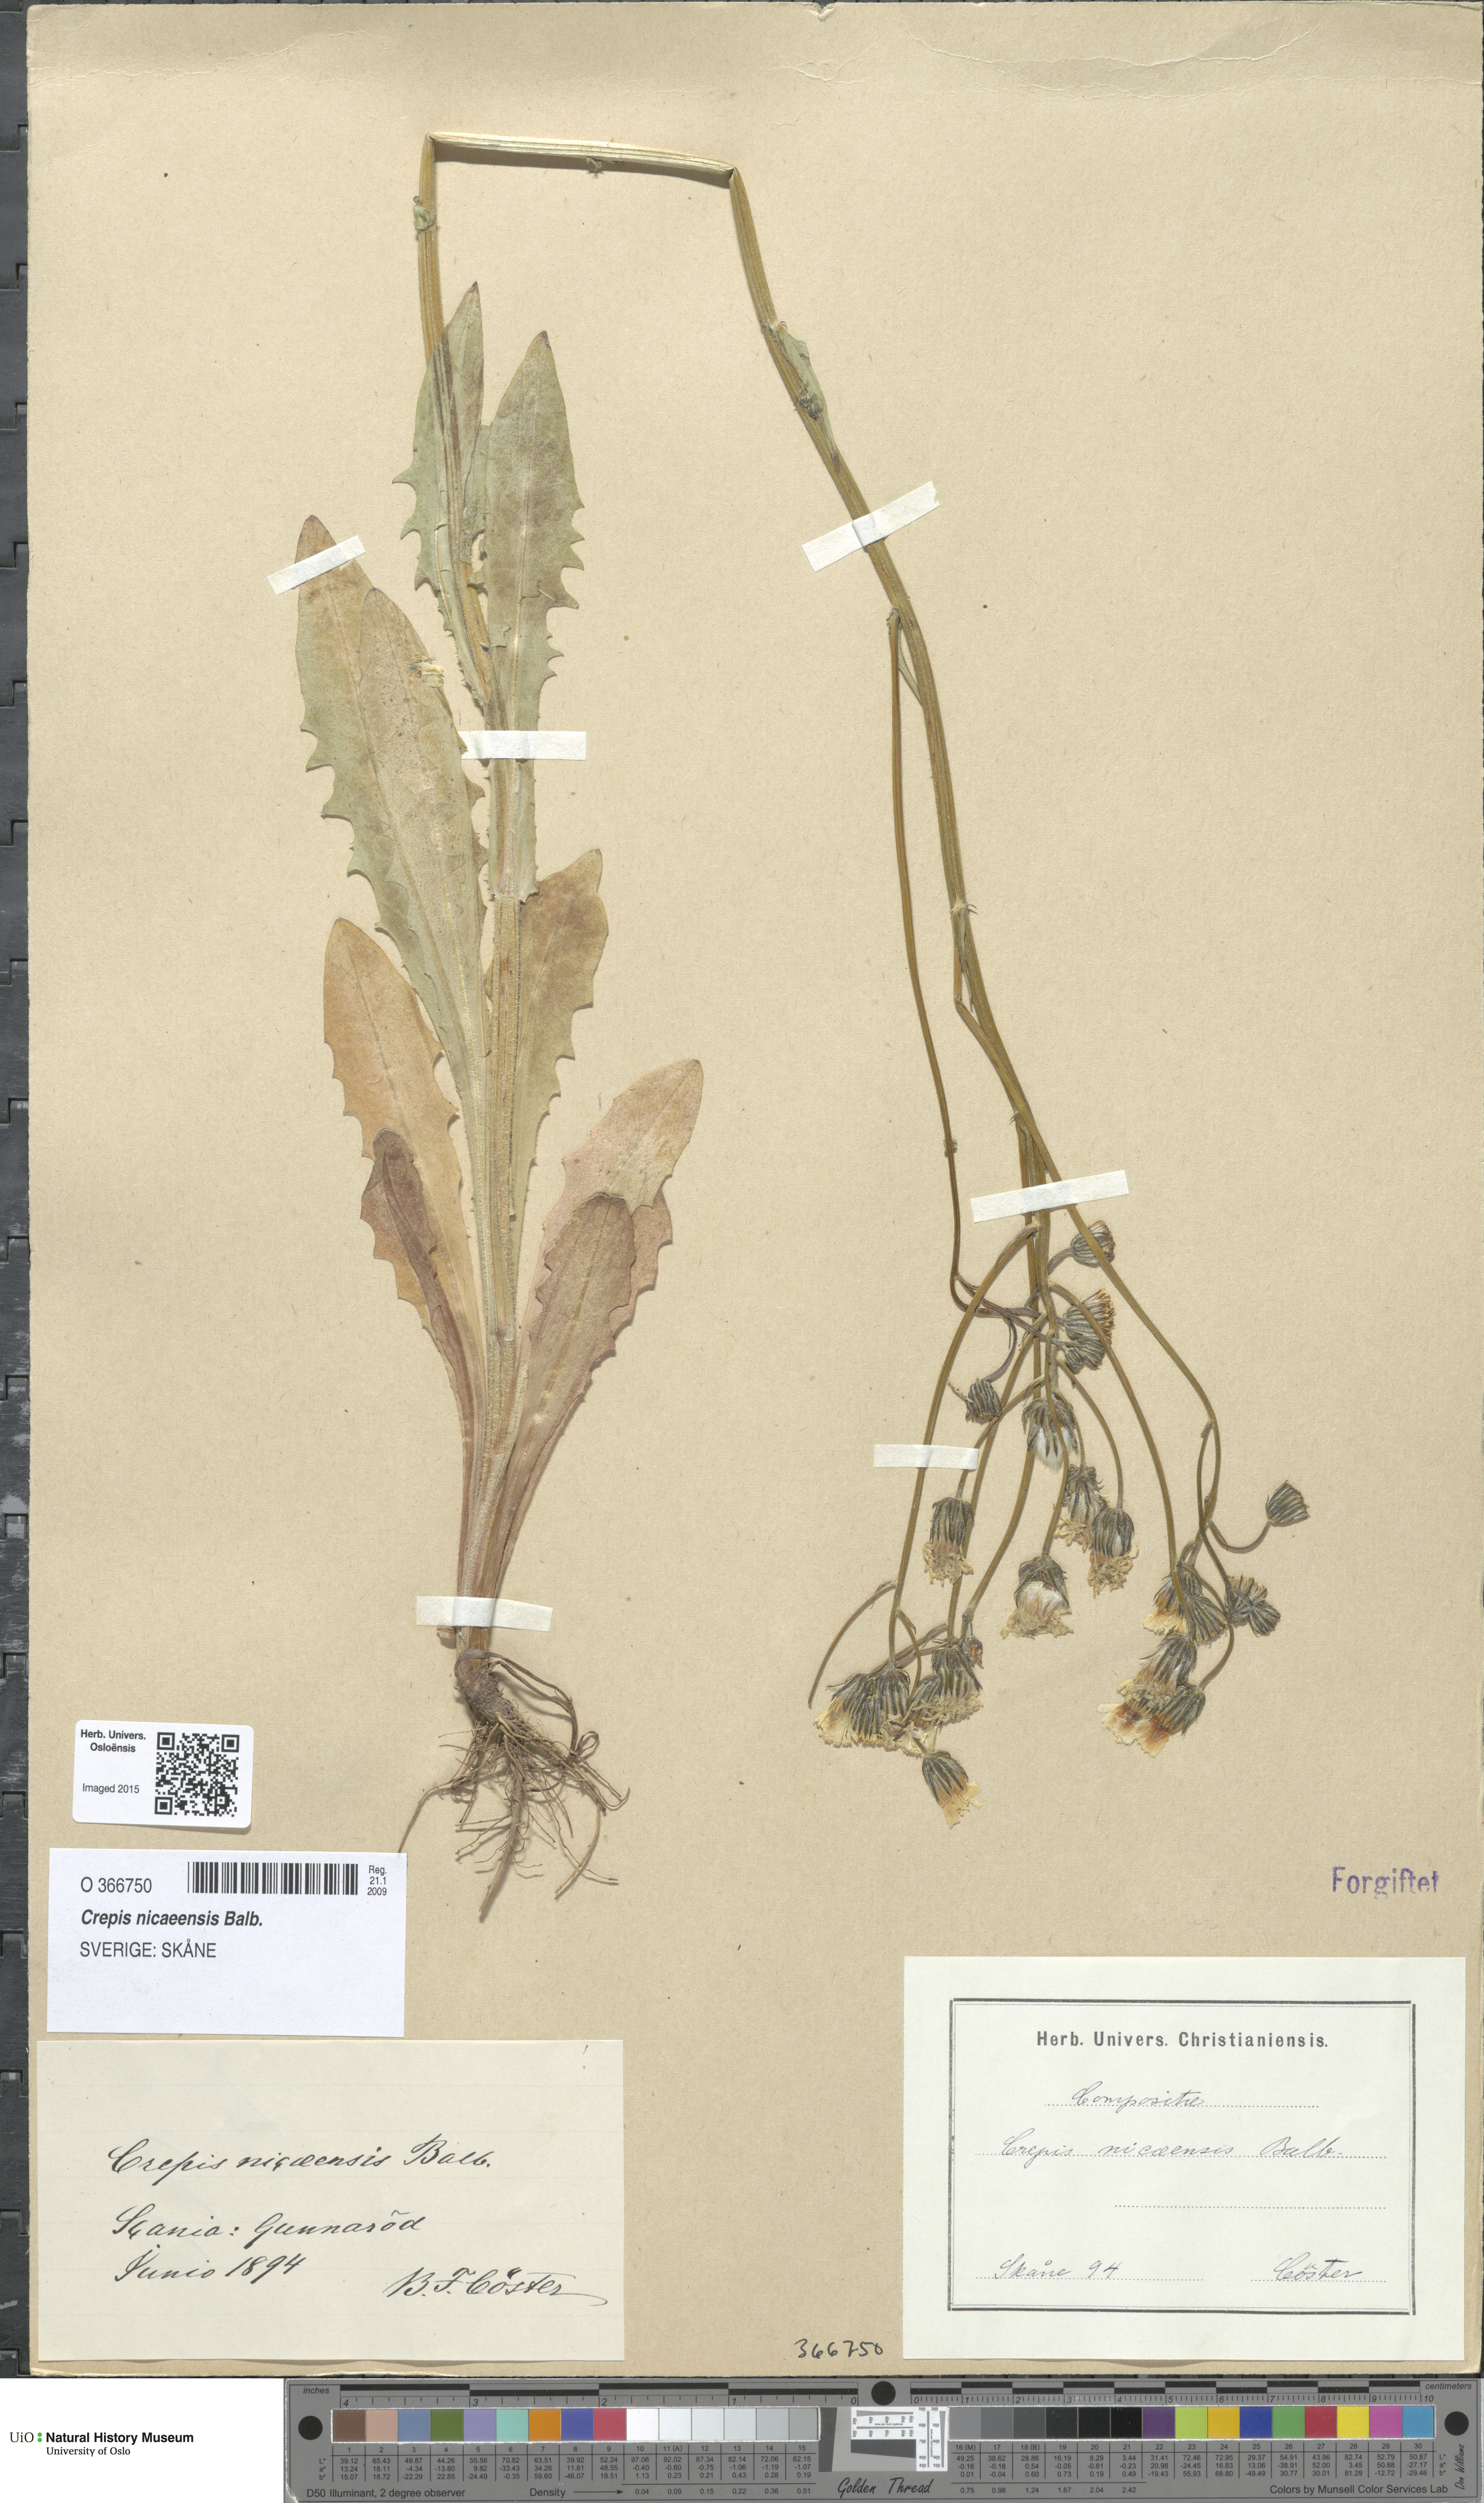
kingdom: Plantae
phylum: Tracheophyta
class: Magnoliopsida
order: Asterales
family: Asteraceae
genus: Crepis
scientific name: Crepis nicaeensis
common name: Turkish hawksbeard
